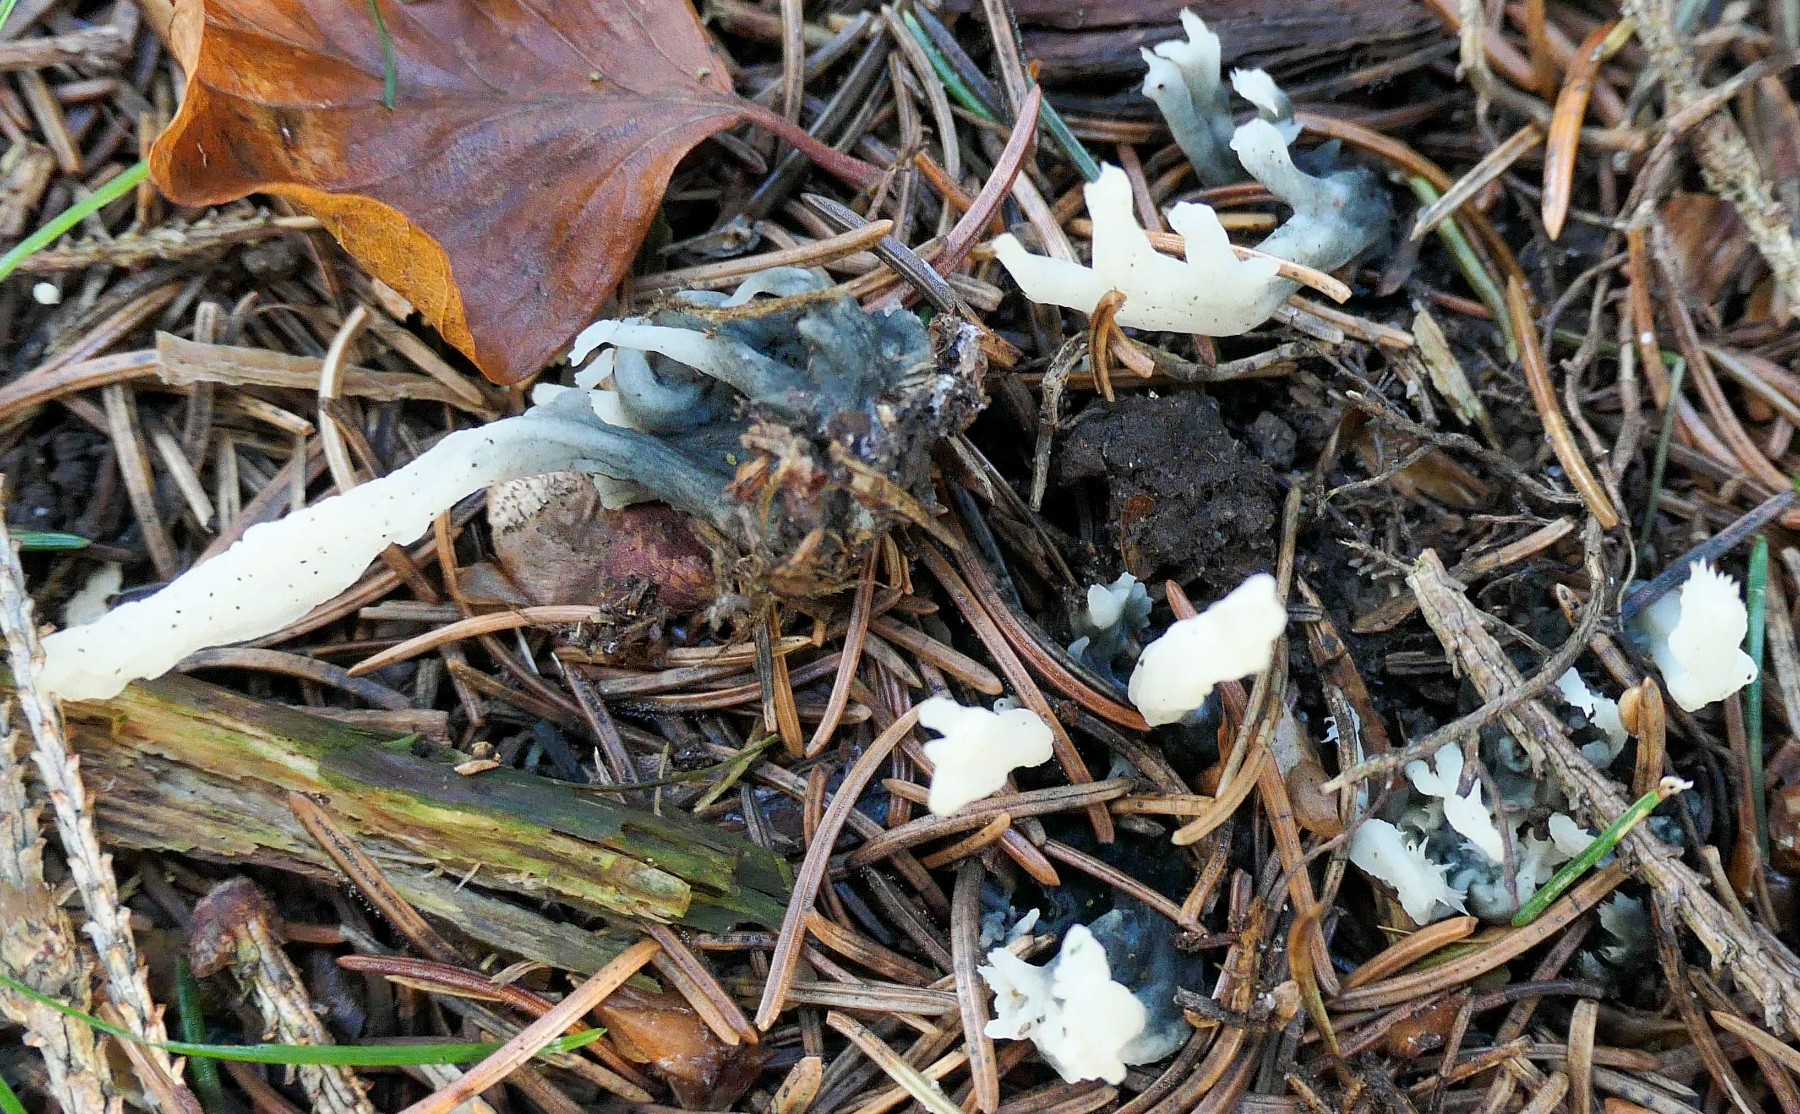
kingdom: Fungi
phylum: Ascomycota
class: Sordariomycetes
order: Sordariales
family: Helminthosphaeriaceae
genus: Helminthosphaeria
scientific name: Helminthosphaeria clavariarum
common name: trold-svampesnyltekerne
